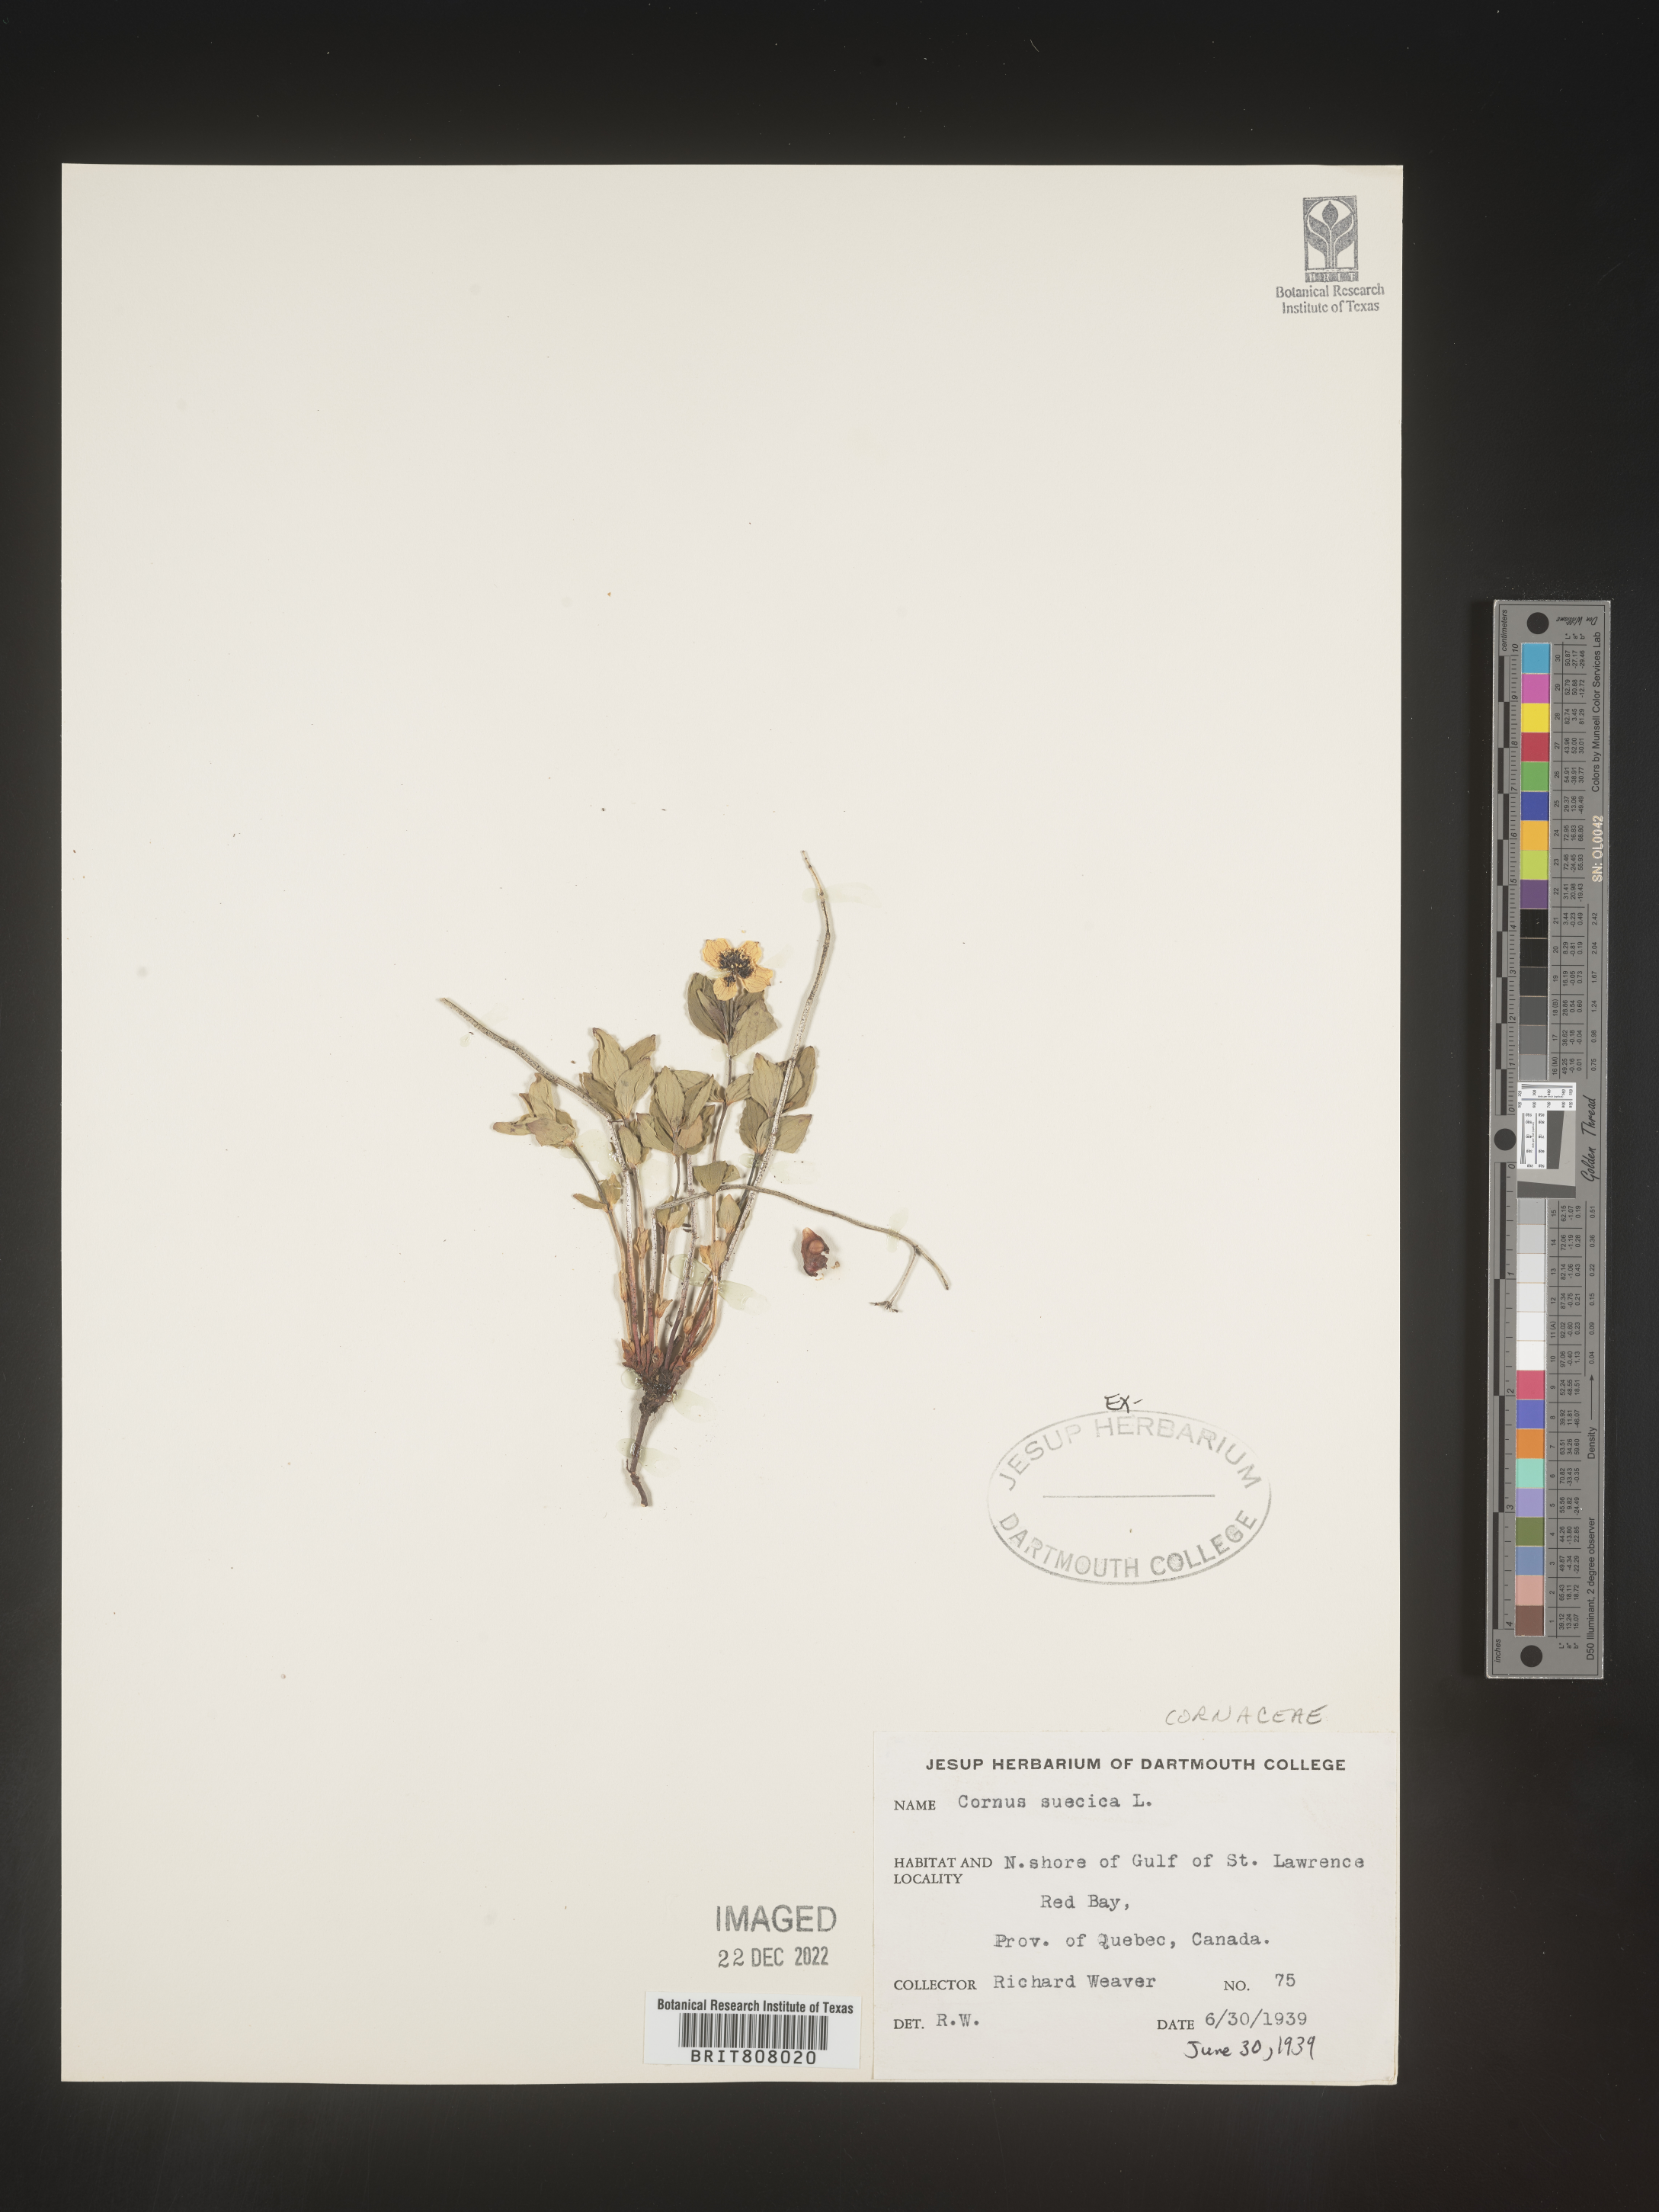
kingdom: Plantae
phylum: Tracheophyta
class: Magnoliopsida
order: Cornales
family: Cornaceae
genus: Cornus
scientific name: Cornus
